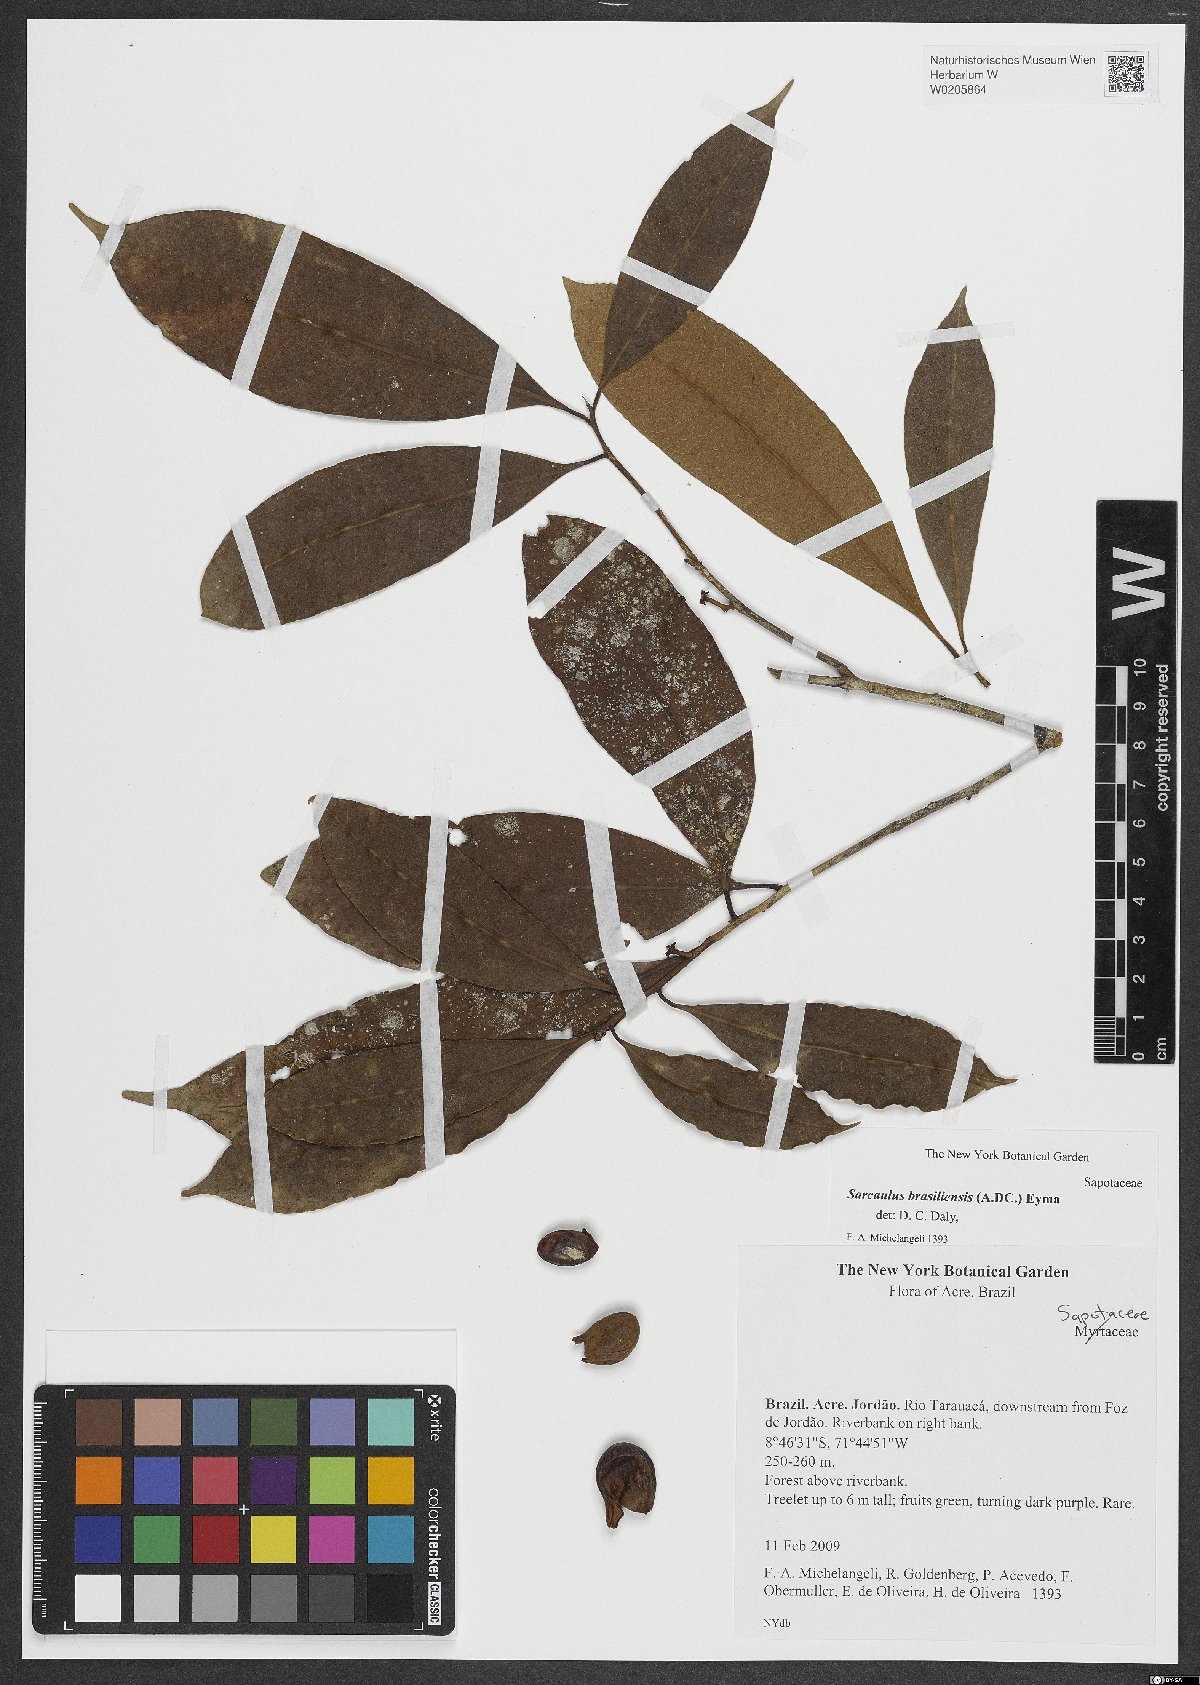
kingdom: Plantae
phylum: Tracheophyta
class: Magnoliopsida
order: Ericales
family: Sapotaceae
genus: Sarcaulus
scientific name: Sarcaulus brasiliensis
